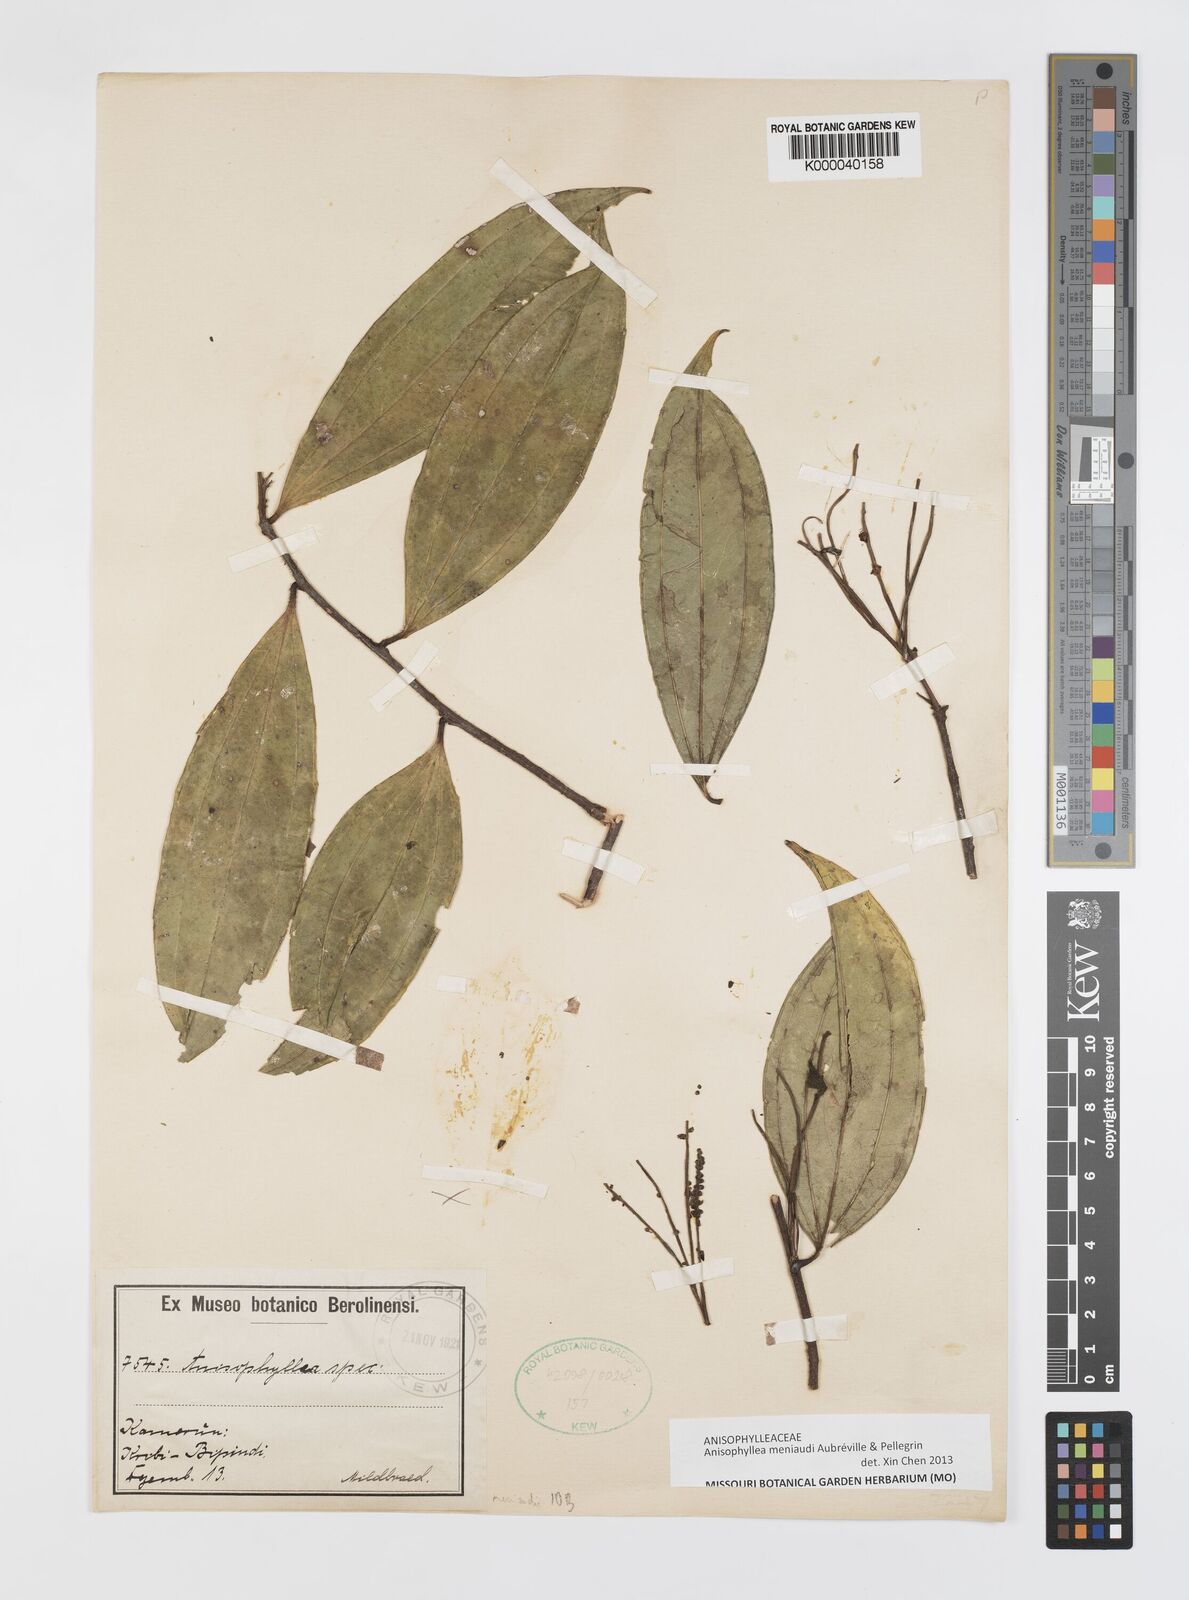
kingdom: Plantae
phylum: Tracheophyta
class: Magnoliopsida
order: Cucurbitales
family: Anisophylleaceae
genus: Anisophyllea
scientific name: Anisophyllea
